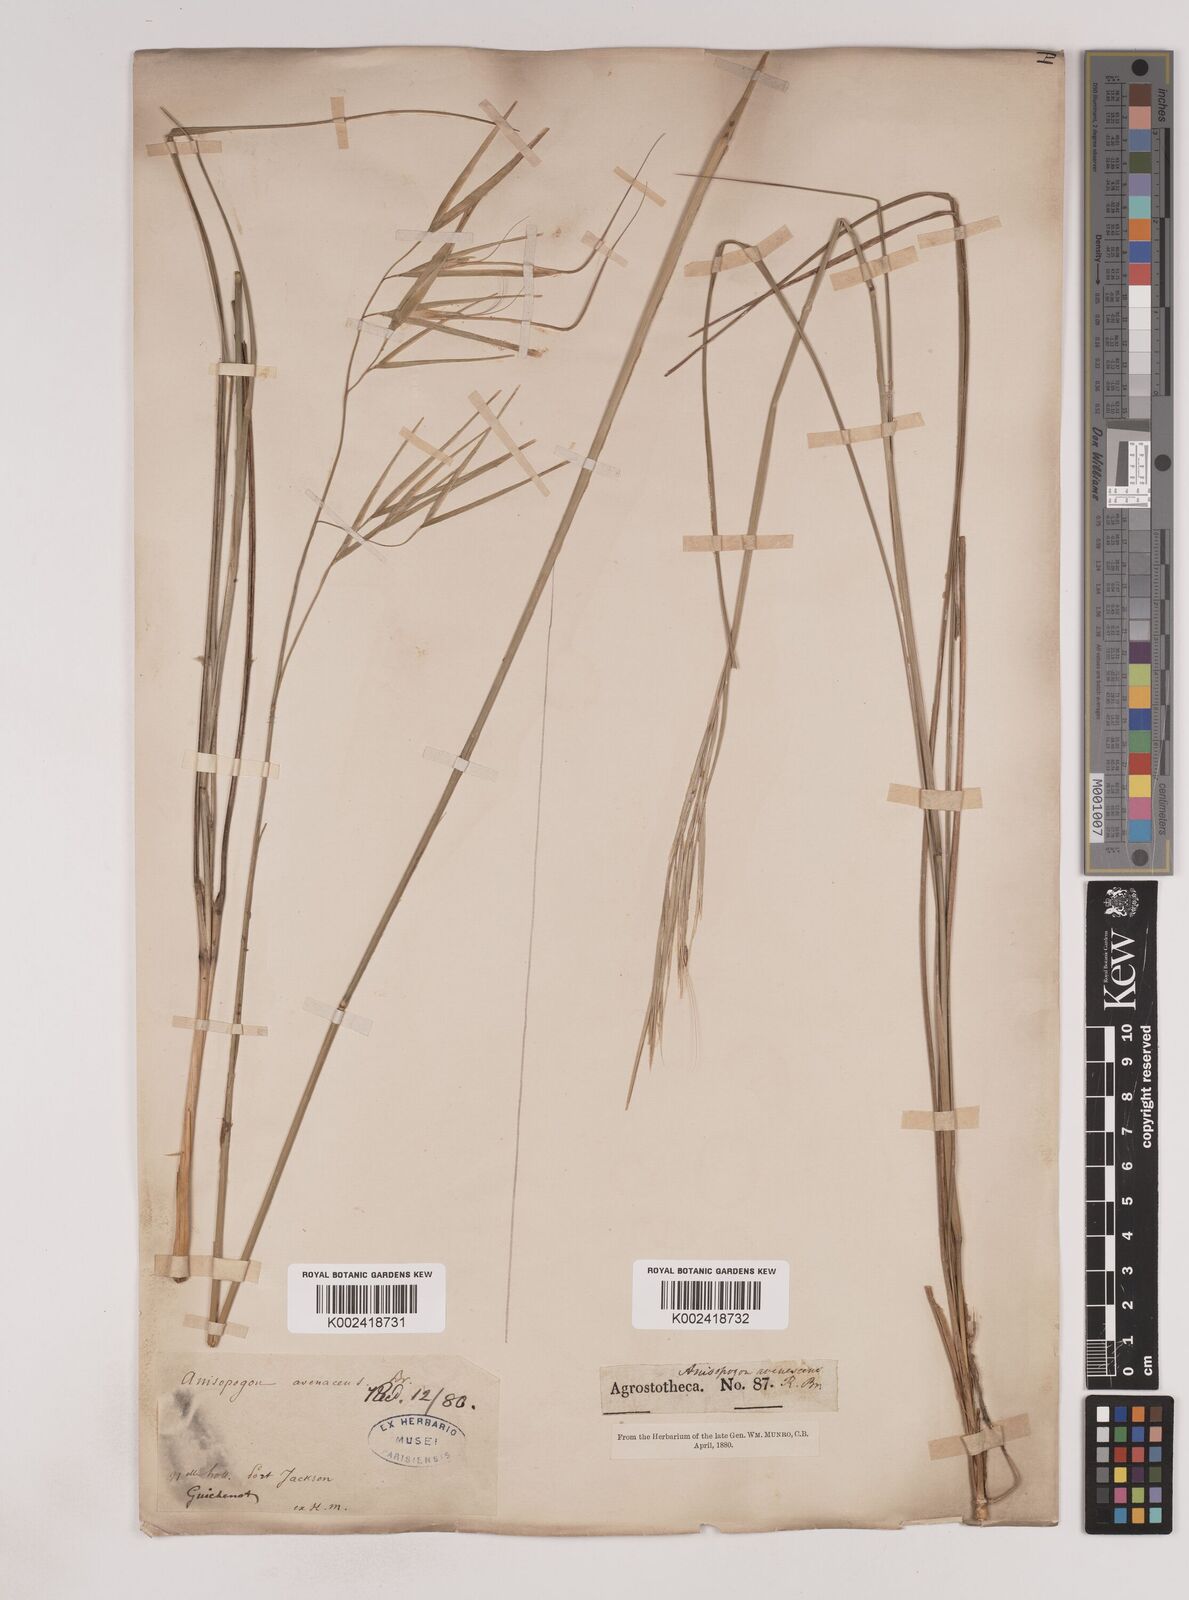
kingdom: Plantae
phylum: Tracheophyta
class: Liliopsida
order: Poales
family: Poaceae
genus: Anisopogon
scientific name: Anisopogon avenaceus
